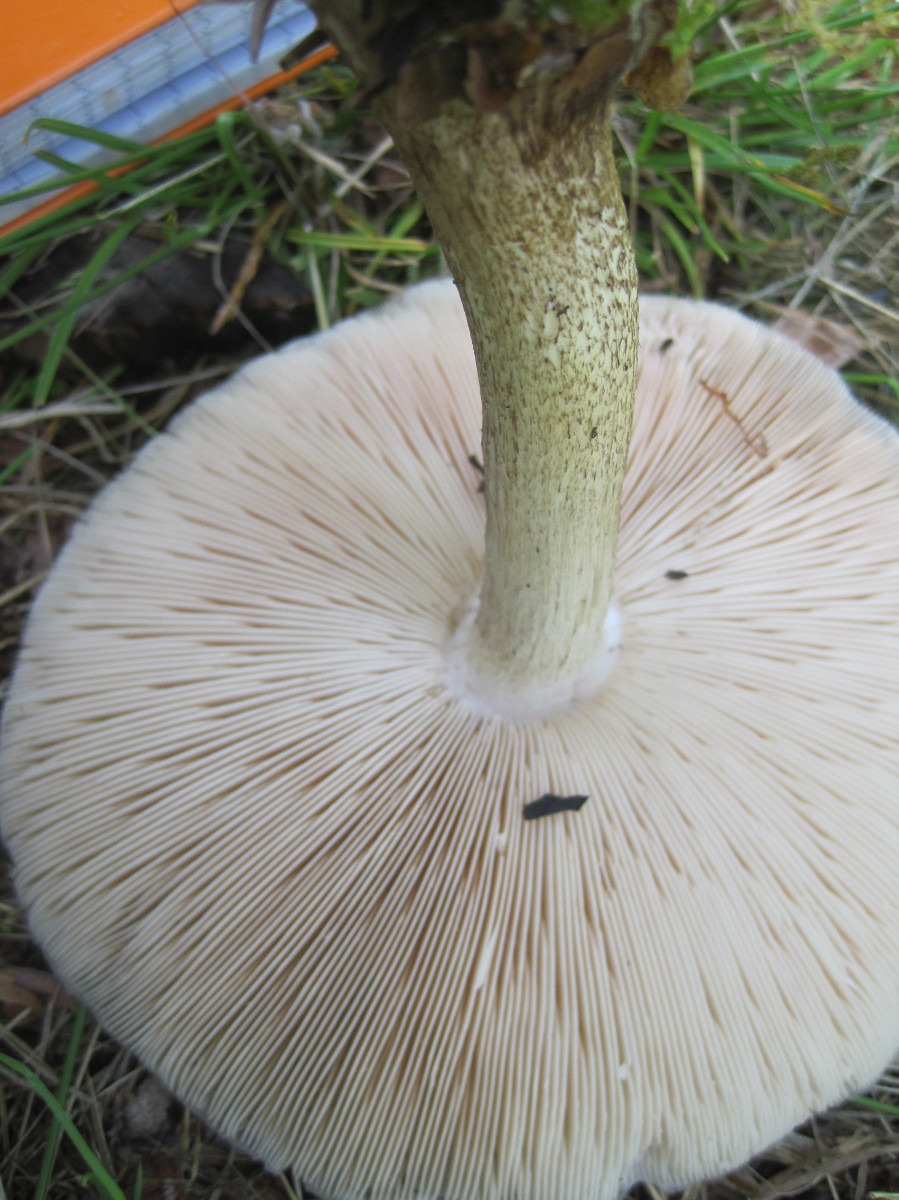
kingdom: Fungi
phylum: Basidiomycota
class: Agaricomycetes
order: Agaricales
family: Pluteaceae
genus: Pluteus
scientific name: Pluteus cervinus
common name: sodfarvet skærmhat
